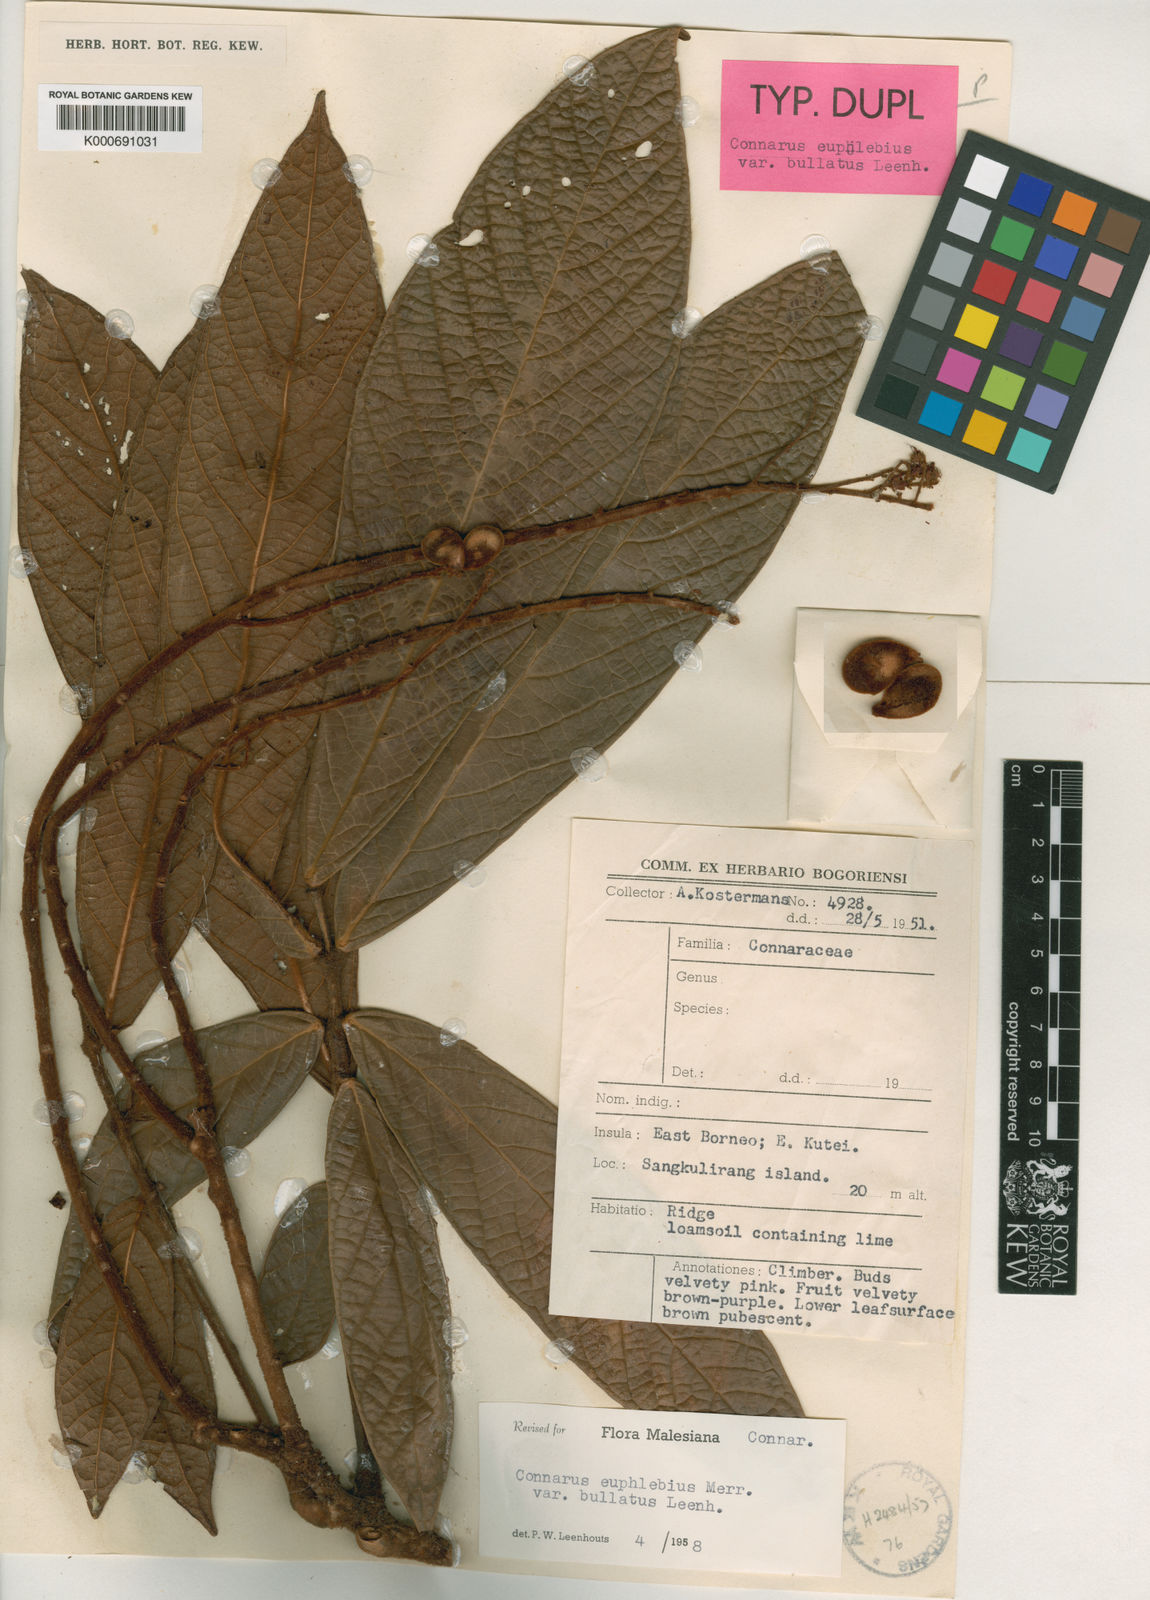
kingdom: Plantae
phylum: Tracheophyta
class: Magnoliopsida
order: Oxalidales
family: Connaraceae
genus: Connarus
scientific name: Connarus euphlebius
